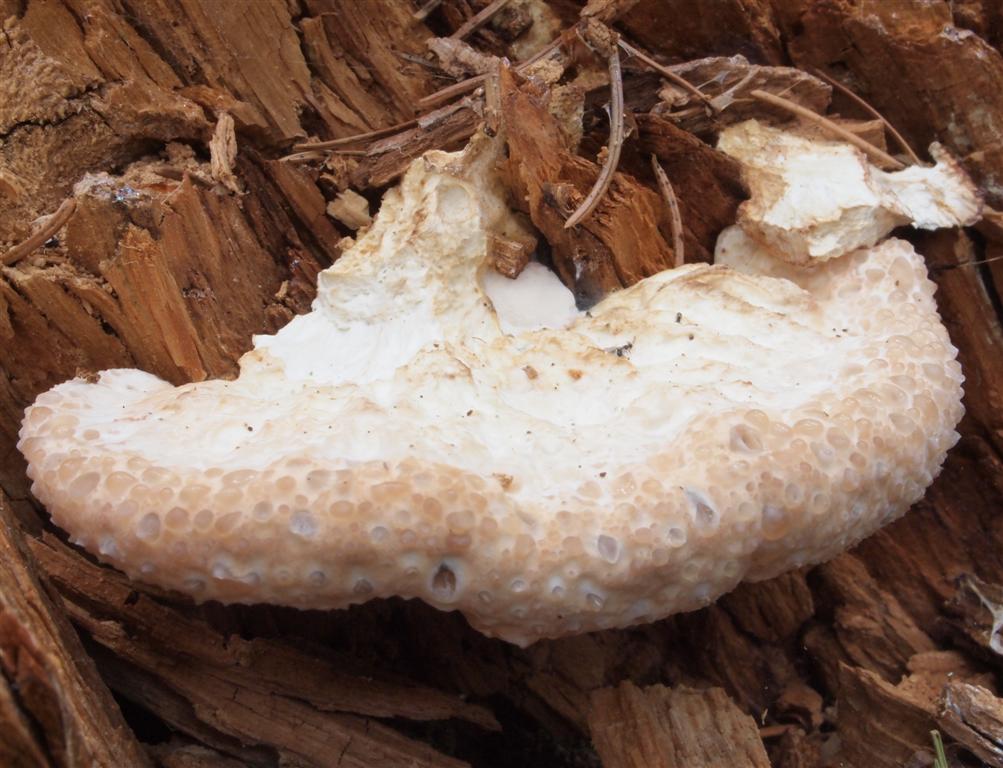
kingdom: Fungi
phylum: Basidiomycota
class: Agaricomycetes
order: Polyporales
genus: Calcipostia
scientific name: Calcipostia guttulata
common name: dråbe-kødporesvamp
